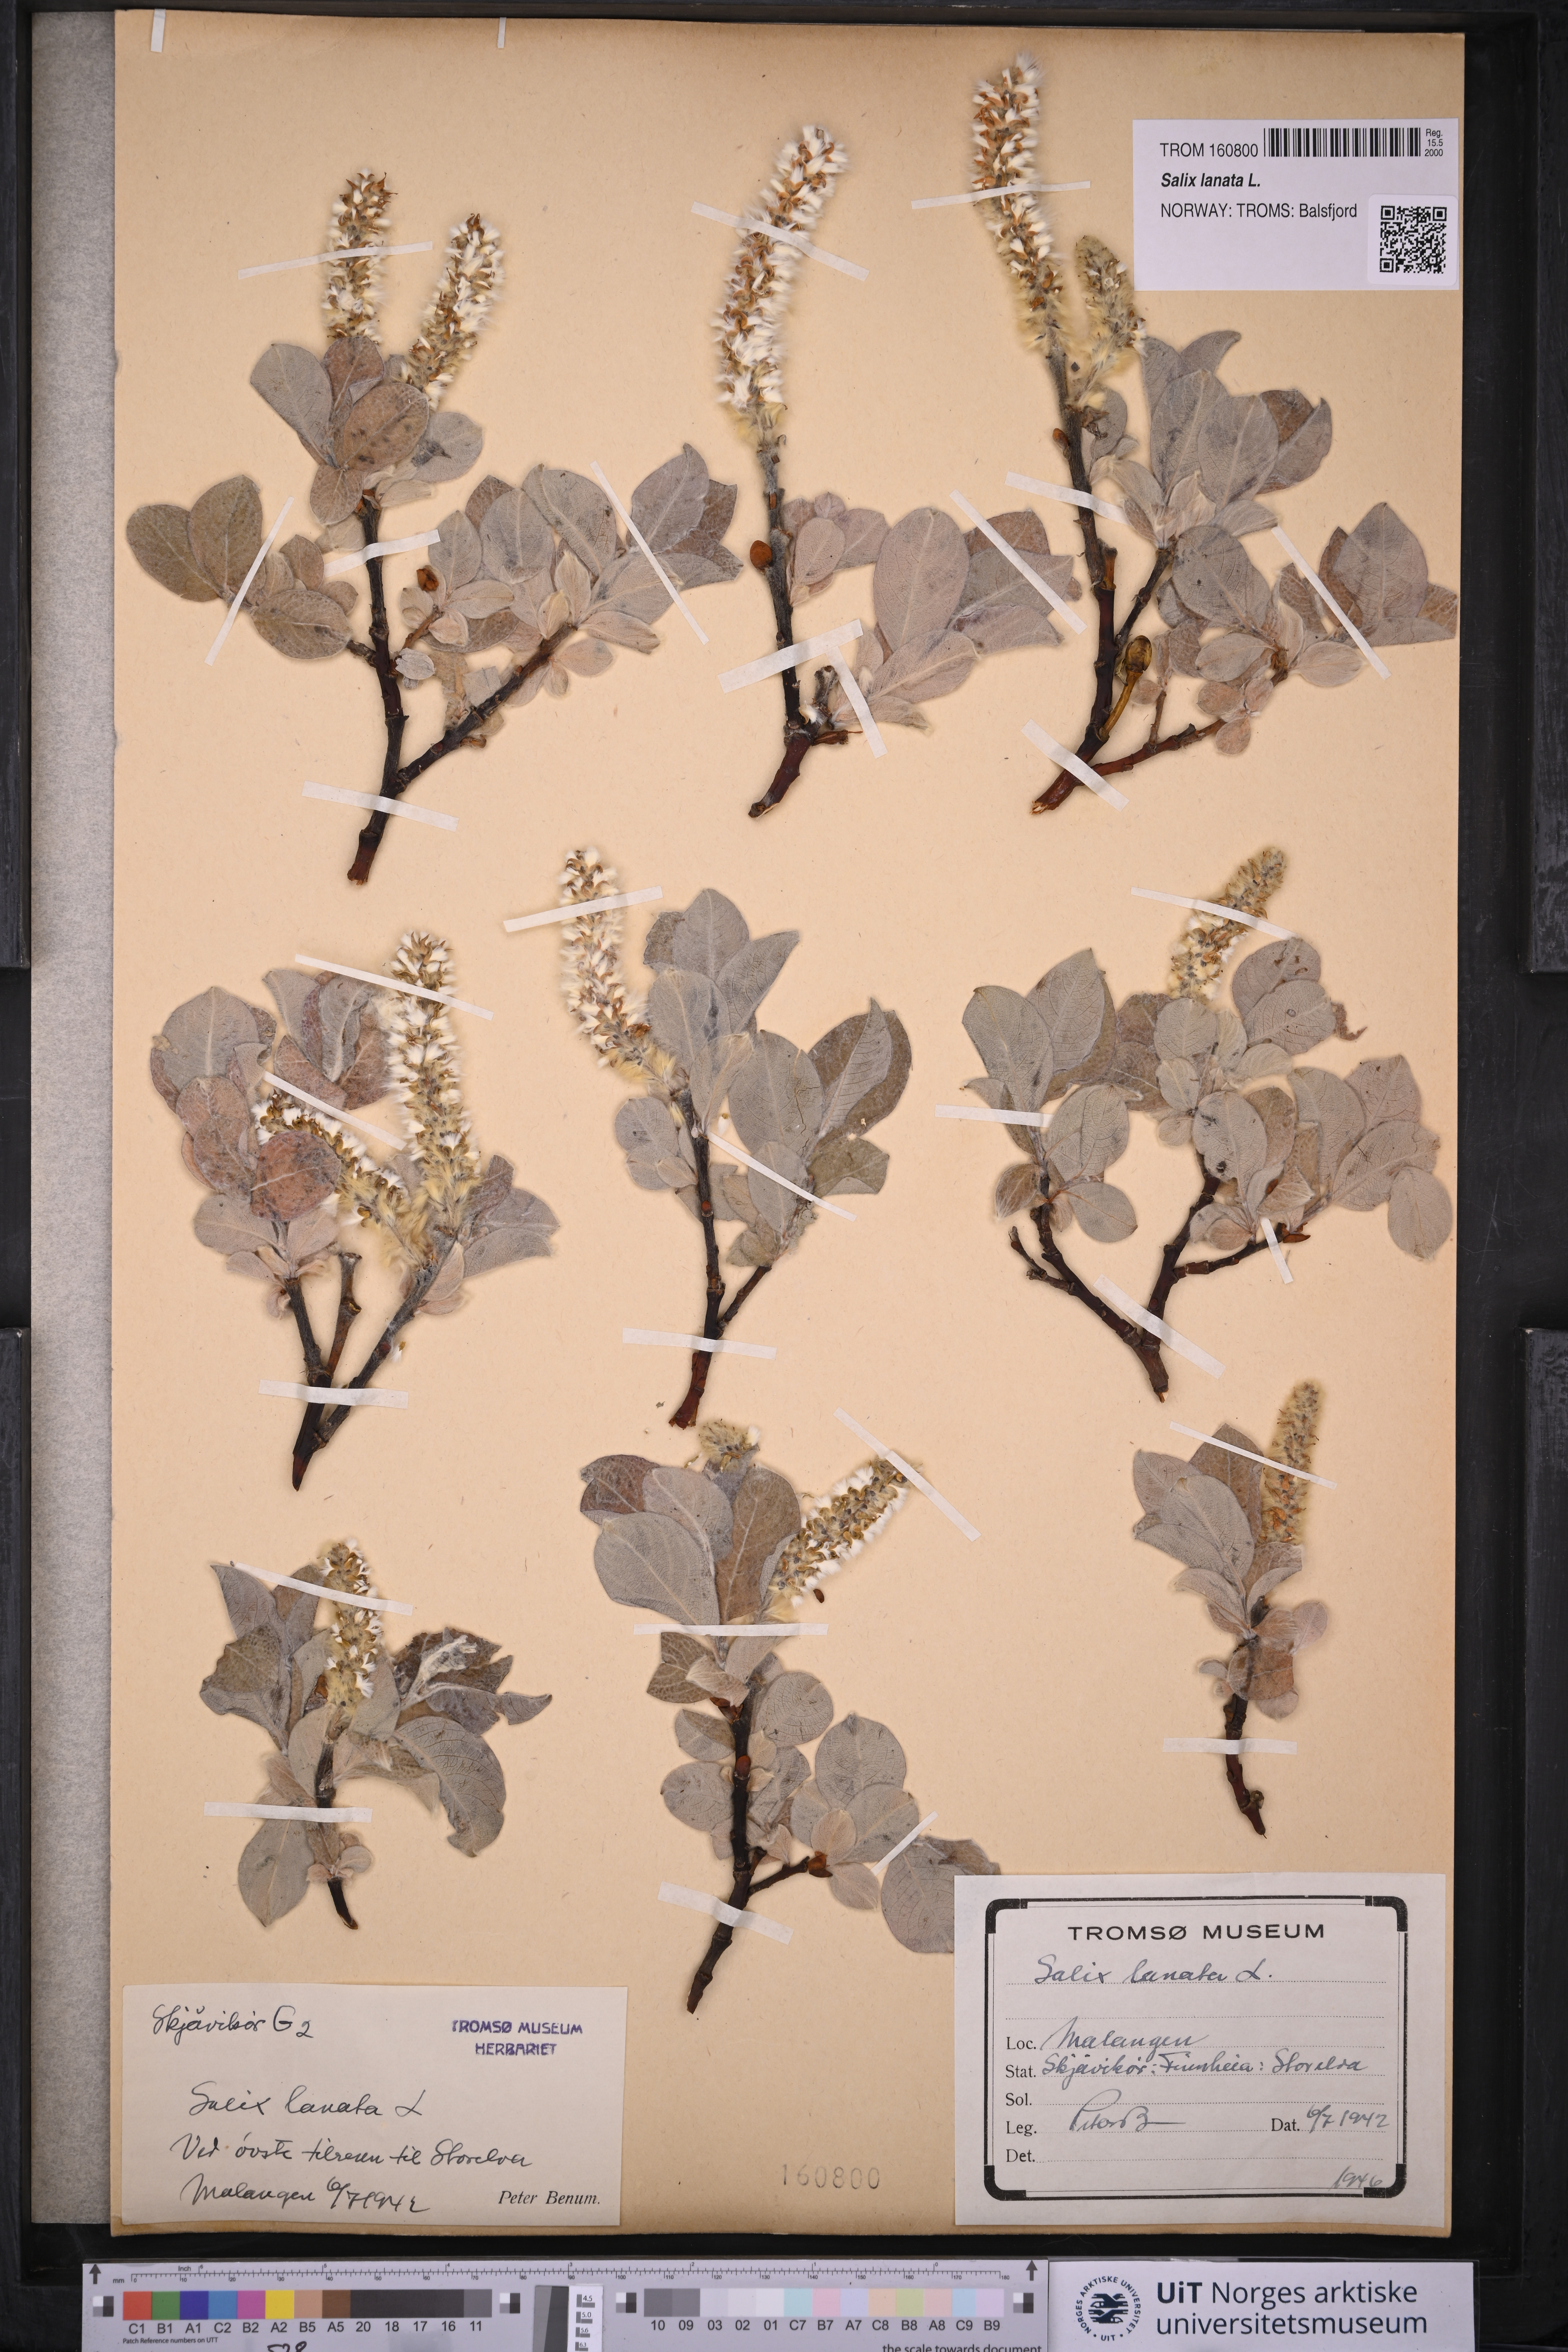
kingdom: Plantae
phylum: Tracheophyta
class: Magnoliopsida
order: Malpighiales
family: Salicaceae
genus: Salix
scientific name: Salix lanata
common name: Woolly willow
